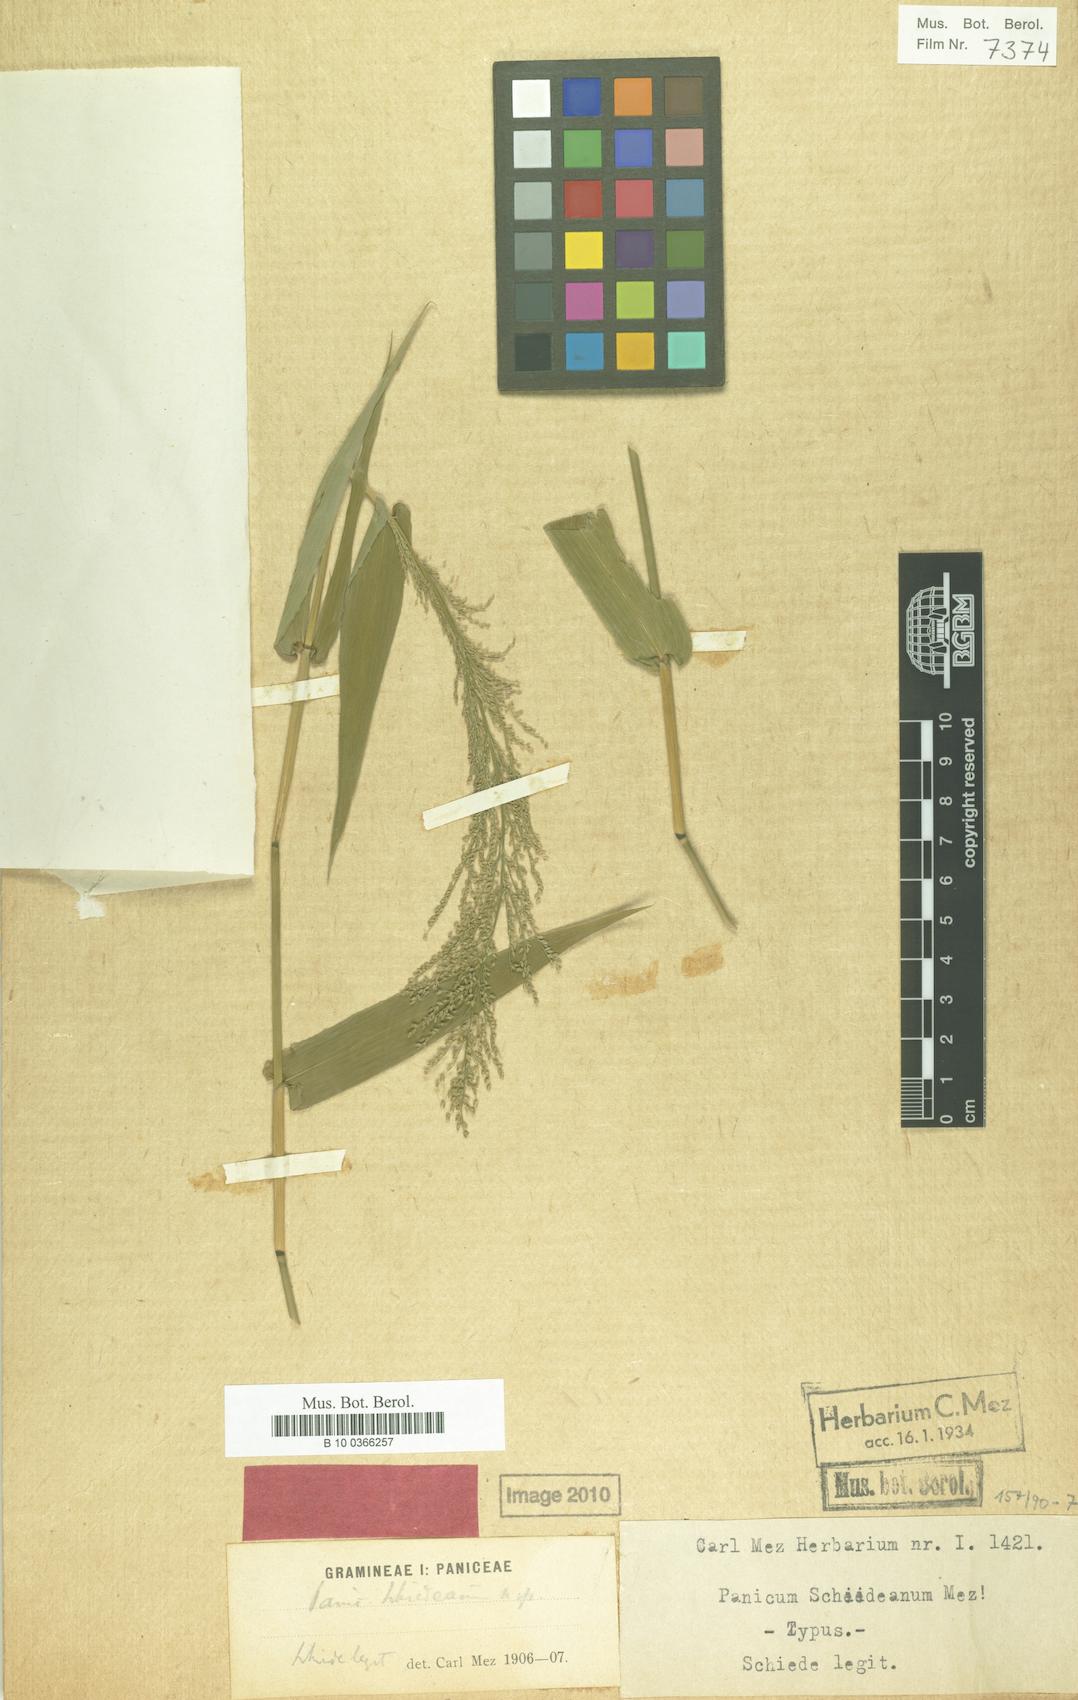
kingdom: Plantae
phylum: Tracheophyta
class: Liliopsida
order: Poales
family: Poaceae
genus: Rugoloa
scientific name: Rugoloa polygonata
